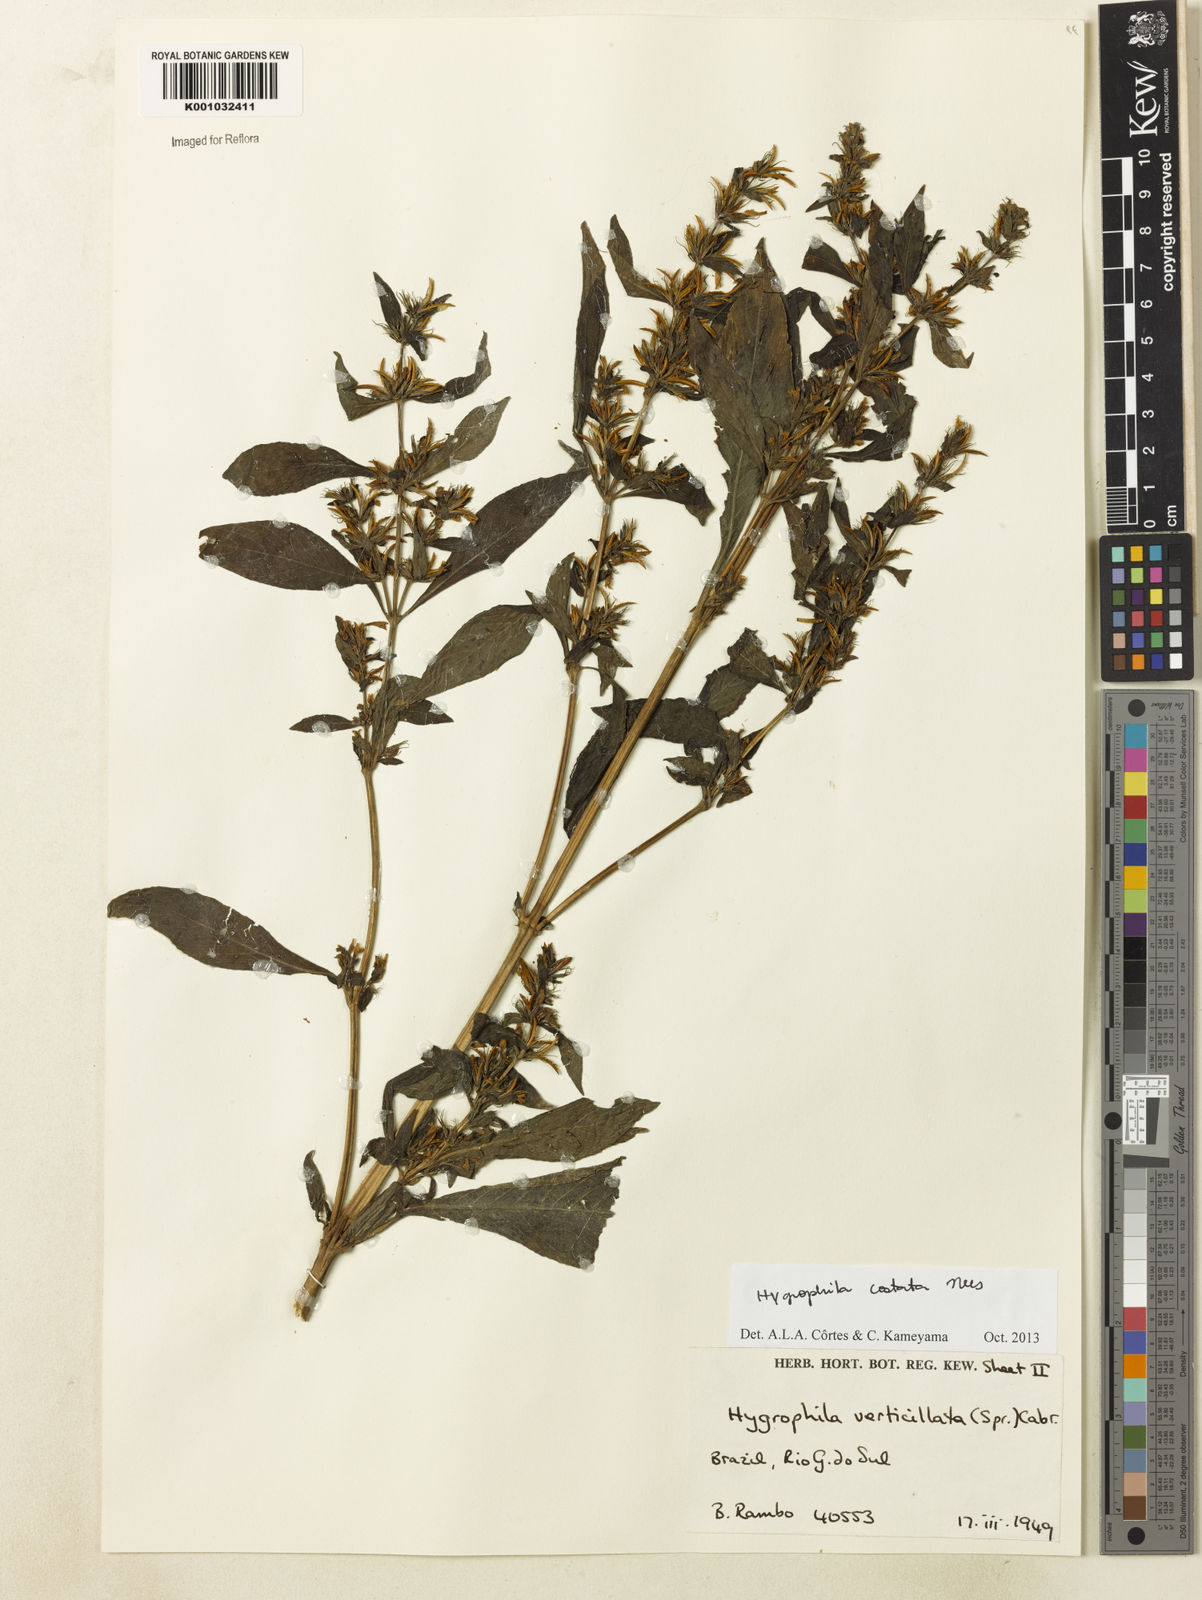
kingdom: Plantae
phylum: Tracheophyta
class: Magnoliopsida
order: Lamiales
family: Acanthaceae
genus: Hygrophila
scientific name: Hygrophila costata
